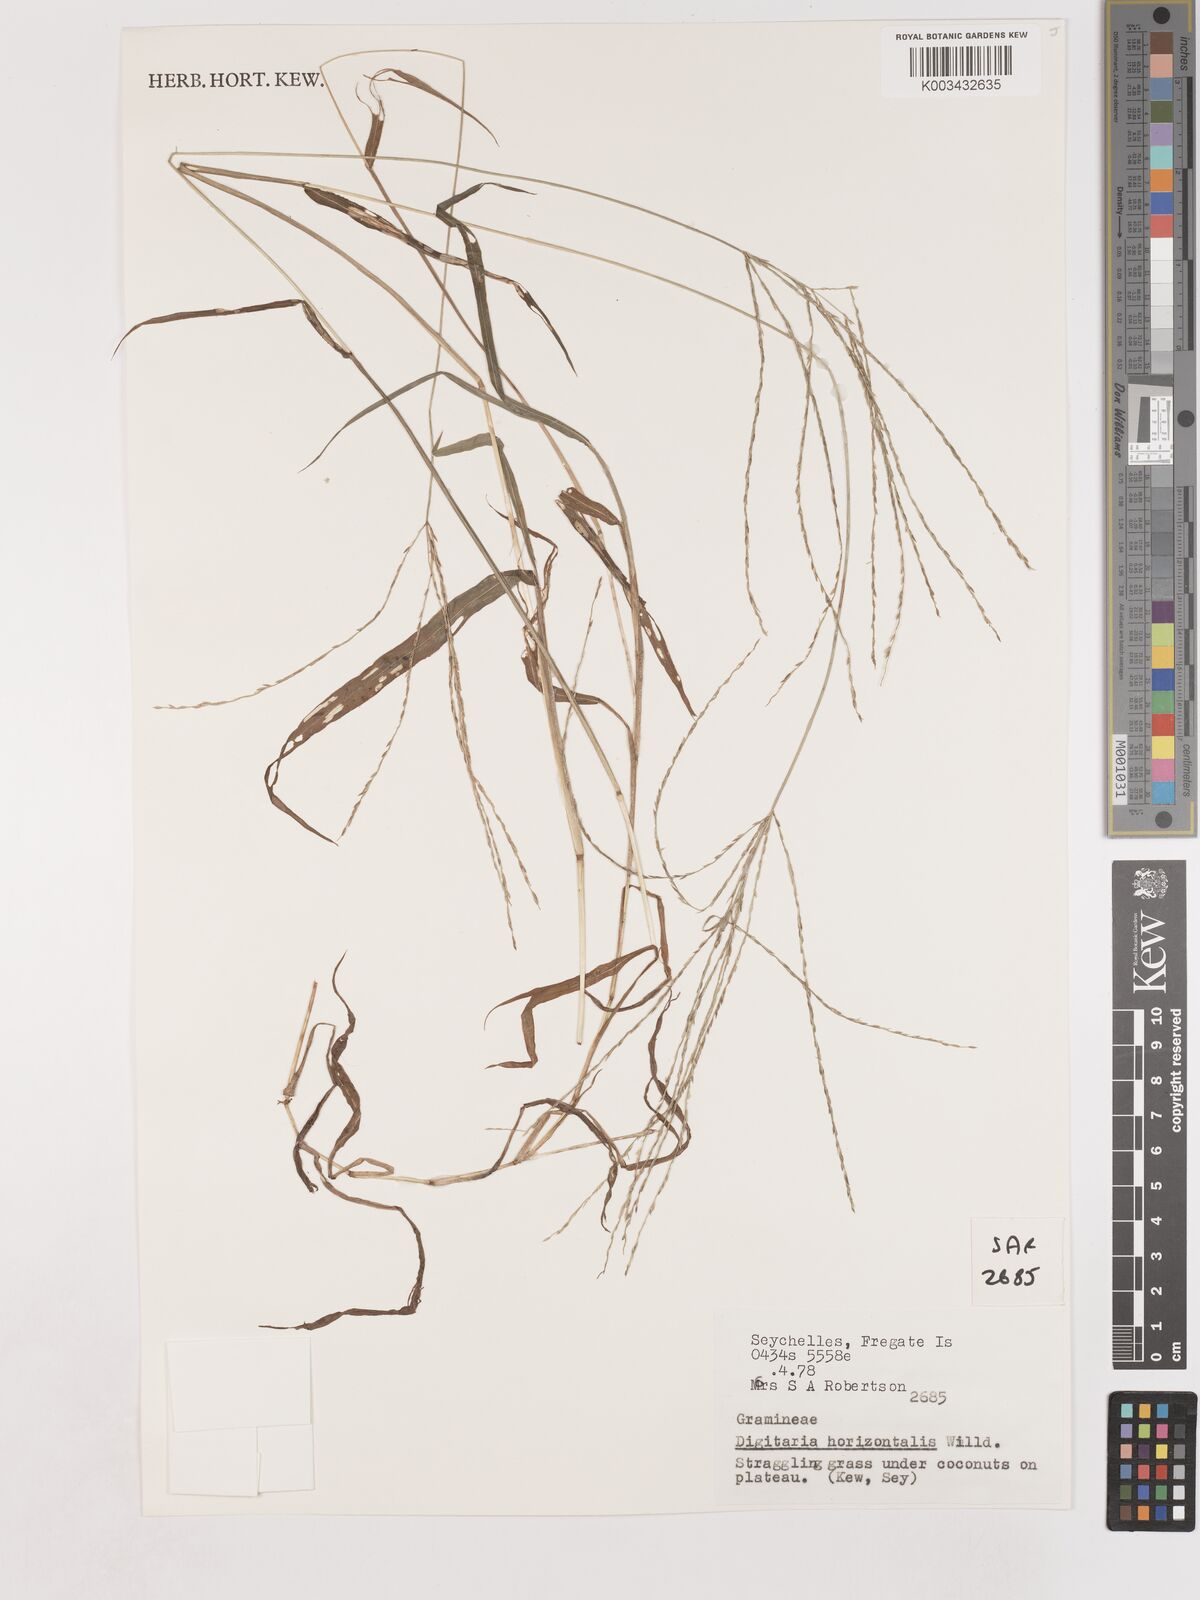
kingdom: Plantae
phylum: Tracheophyta
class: Liliopsida
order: Poales
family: Poaceae
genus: Digitaria
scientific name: Digitaria horizontalis
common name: Jamaican crabgrass
